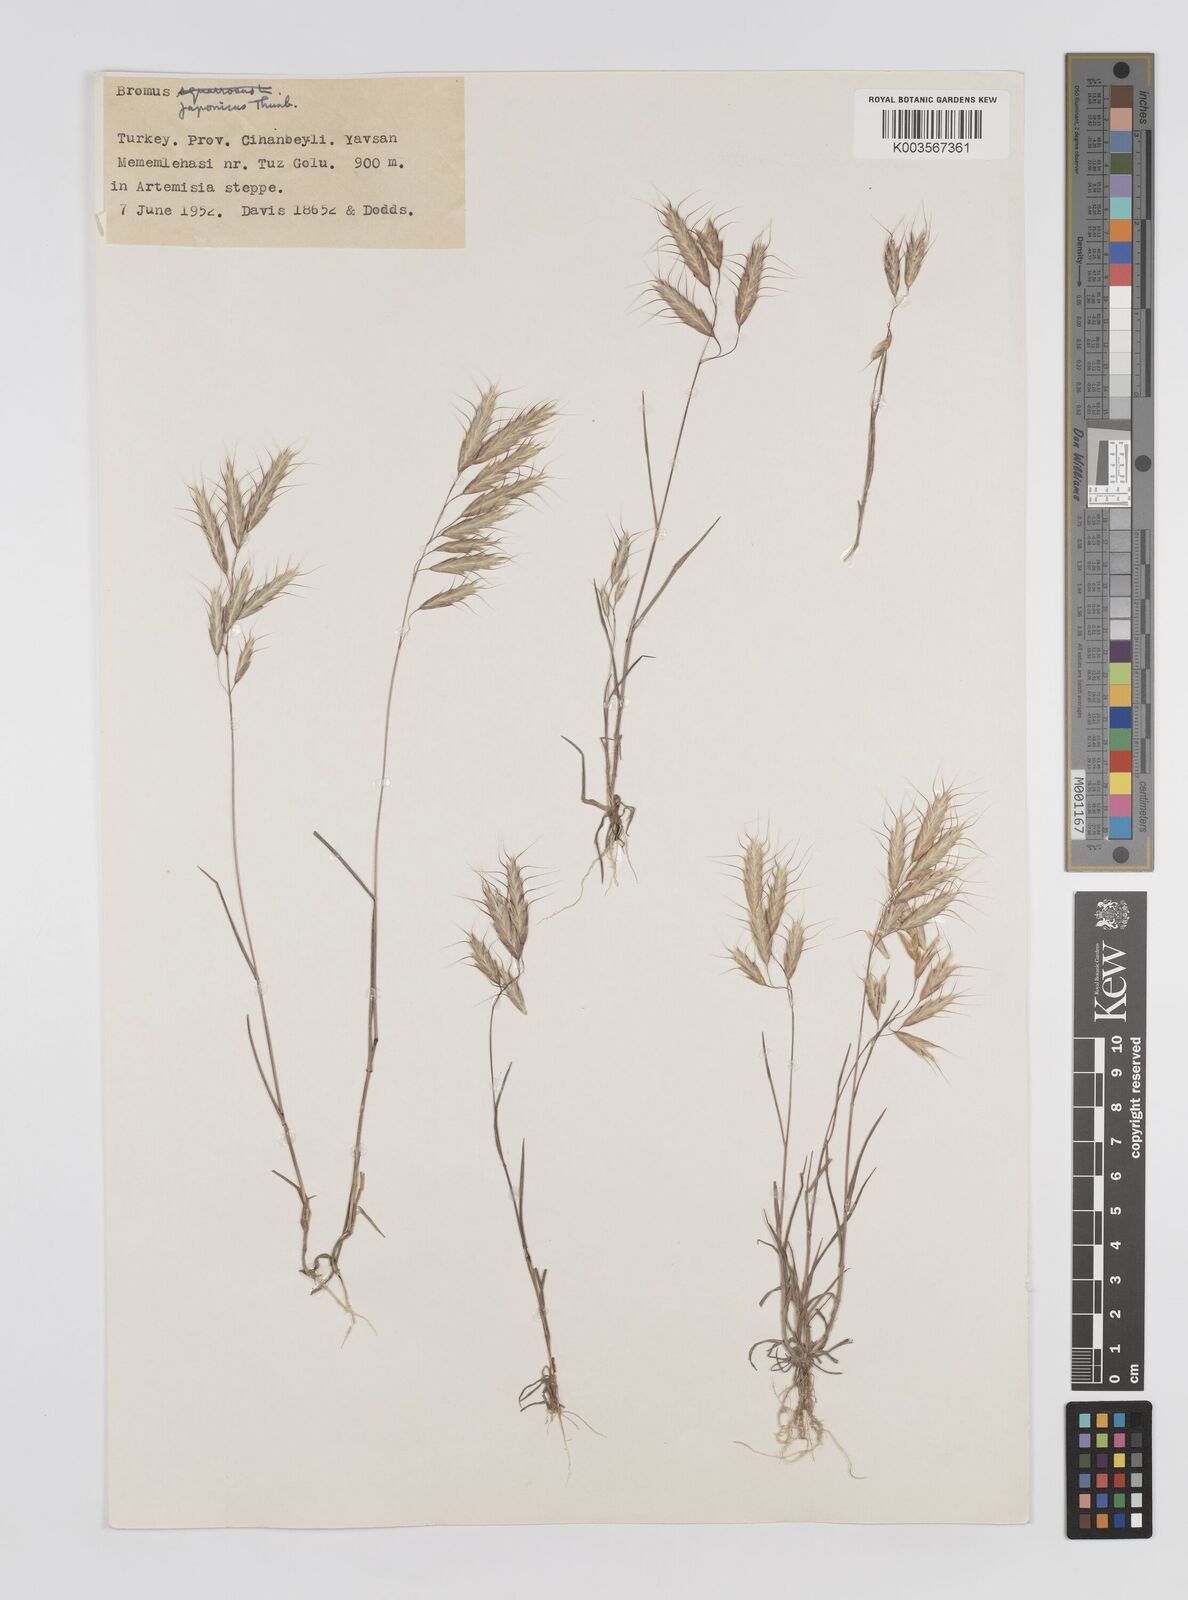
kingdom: Plantae
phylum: Tracheophyta
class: Liliopsida
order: Poales
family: Poaceae
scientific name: Poaceae
